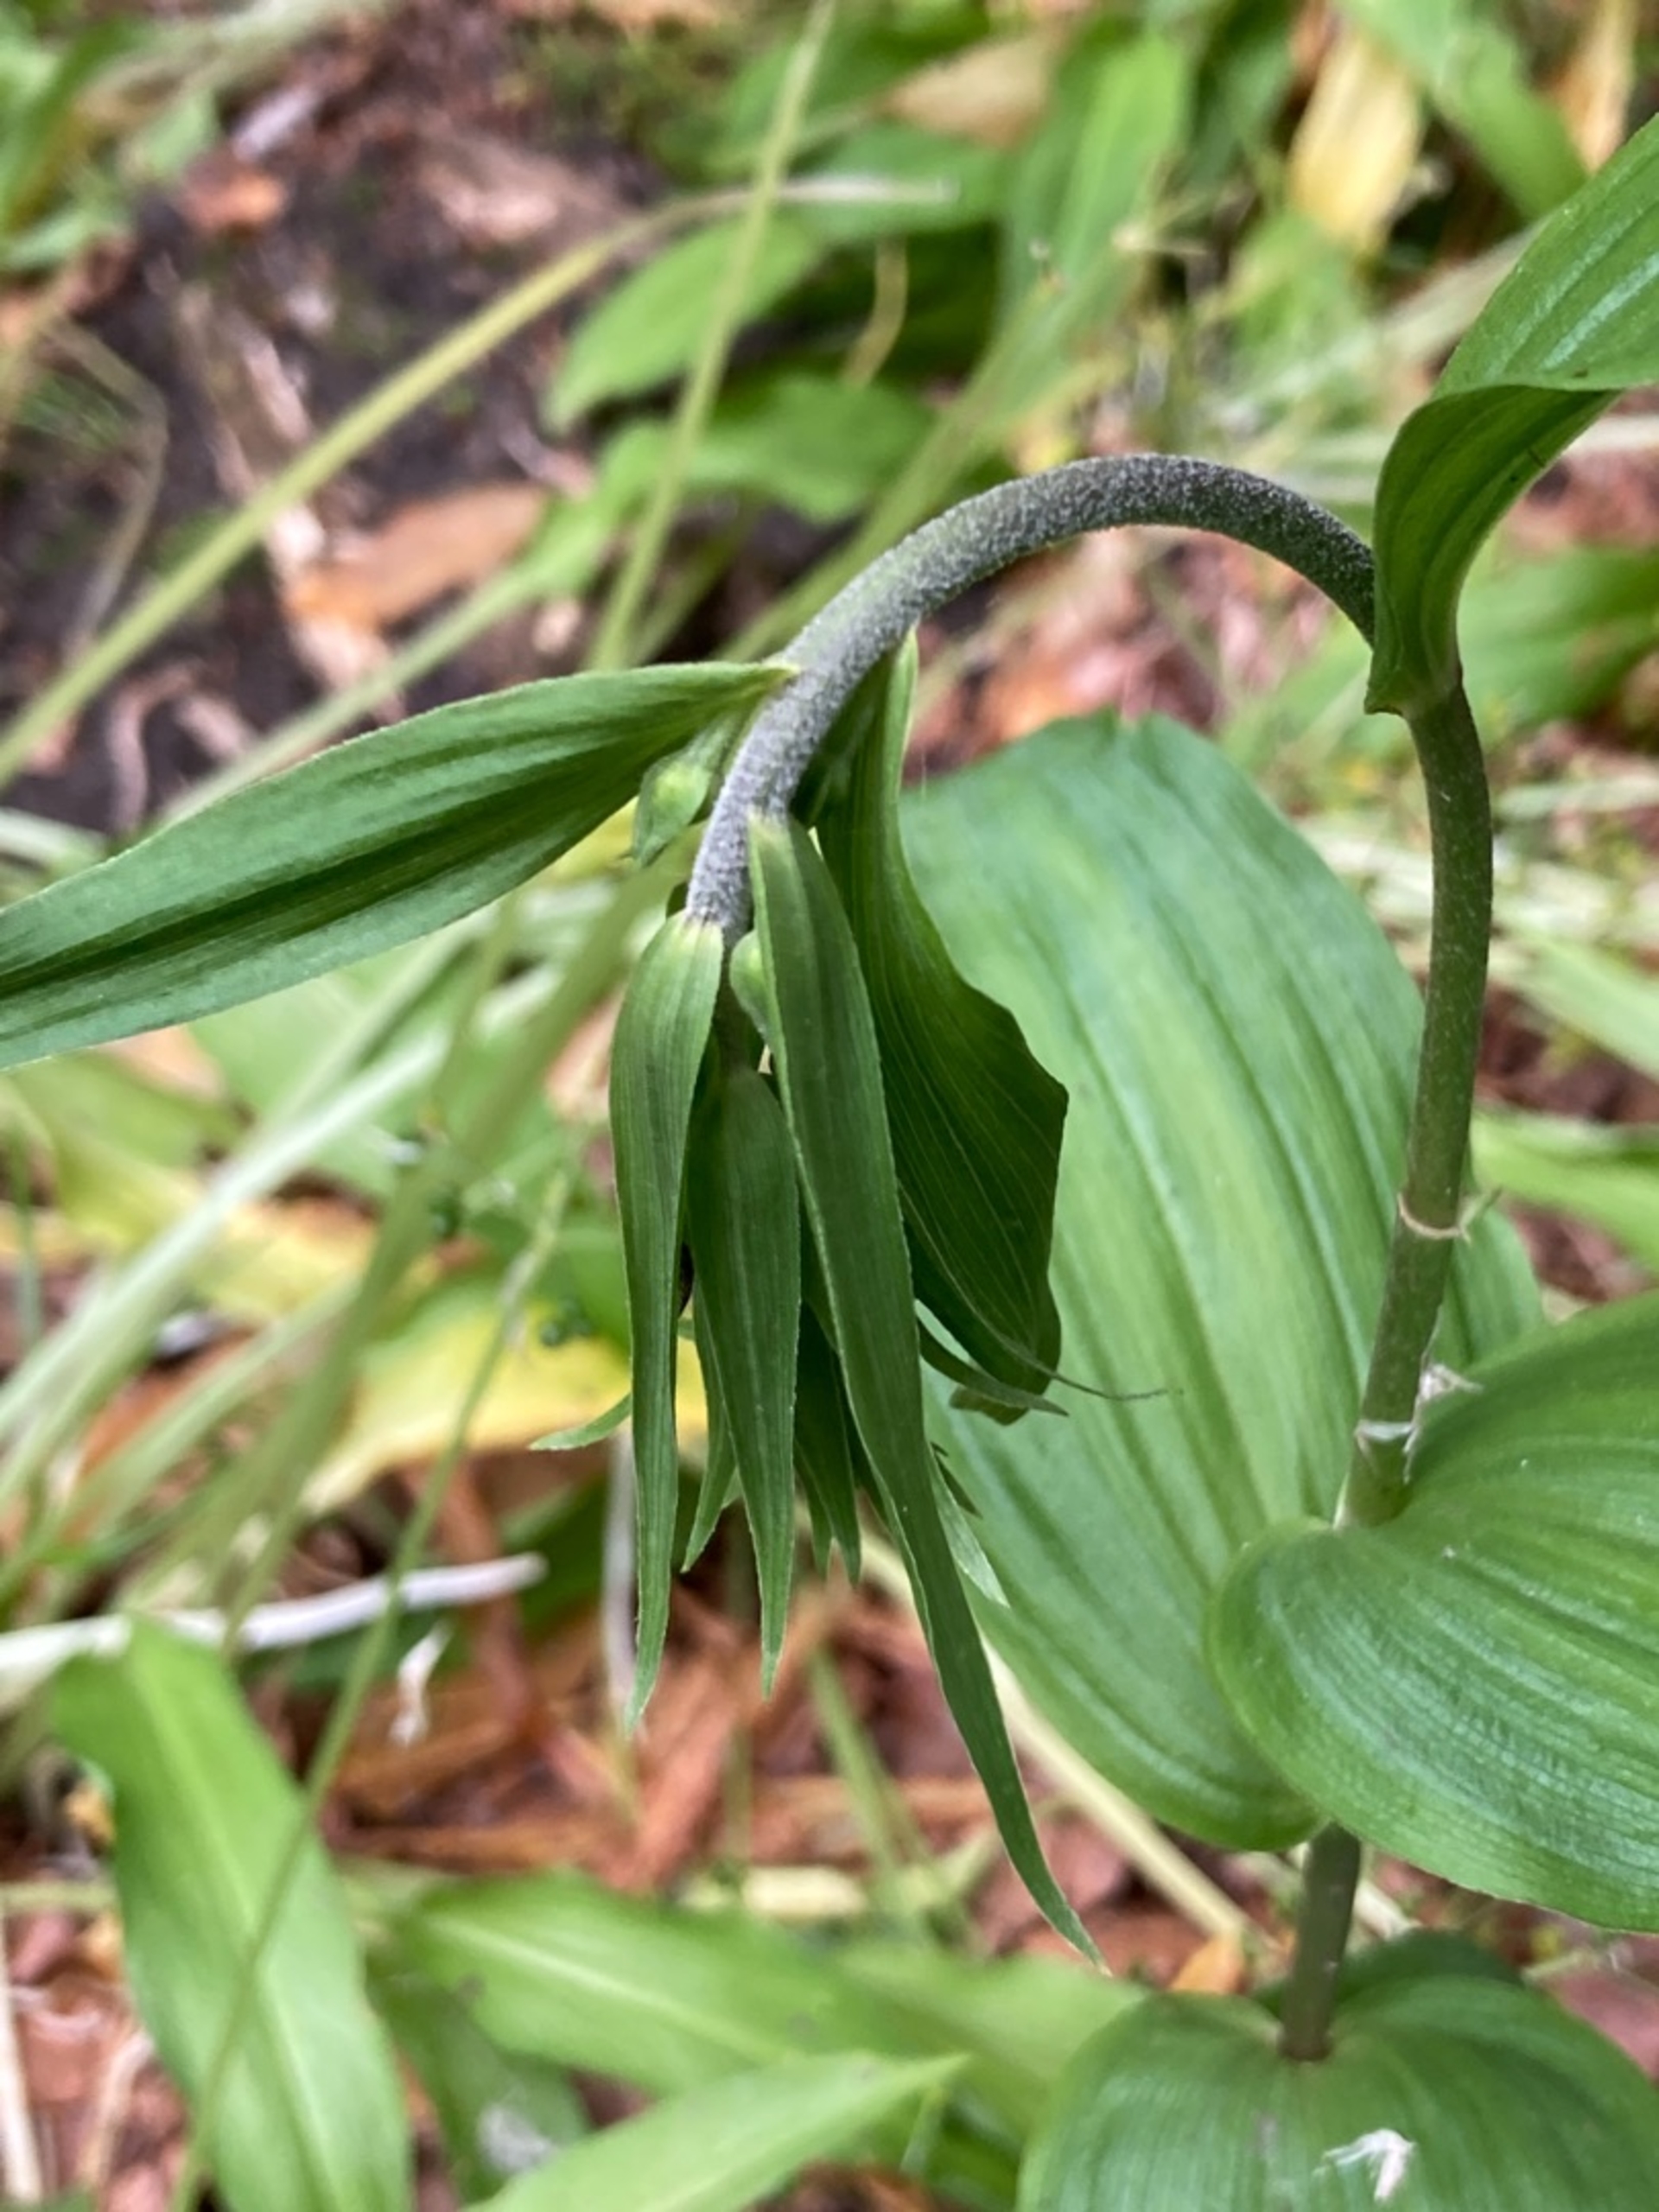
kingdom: Plantae
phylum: Tracheophyta
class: Liliopsida
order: Asparagales
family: Orchidaceae
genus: Epipactis
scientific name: Epipactis helleborine
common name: Skov-hullæbe
